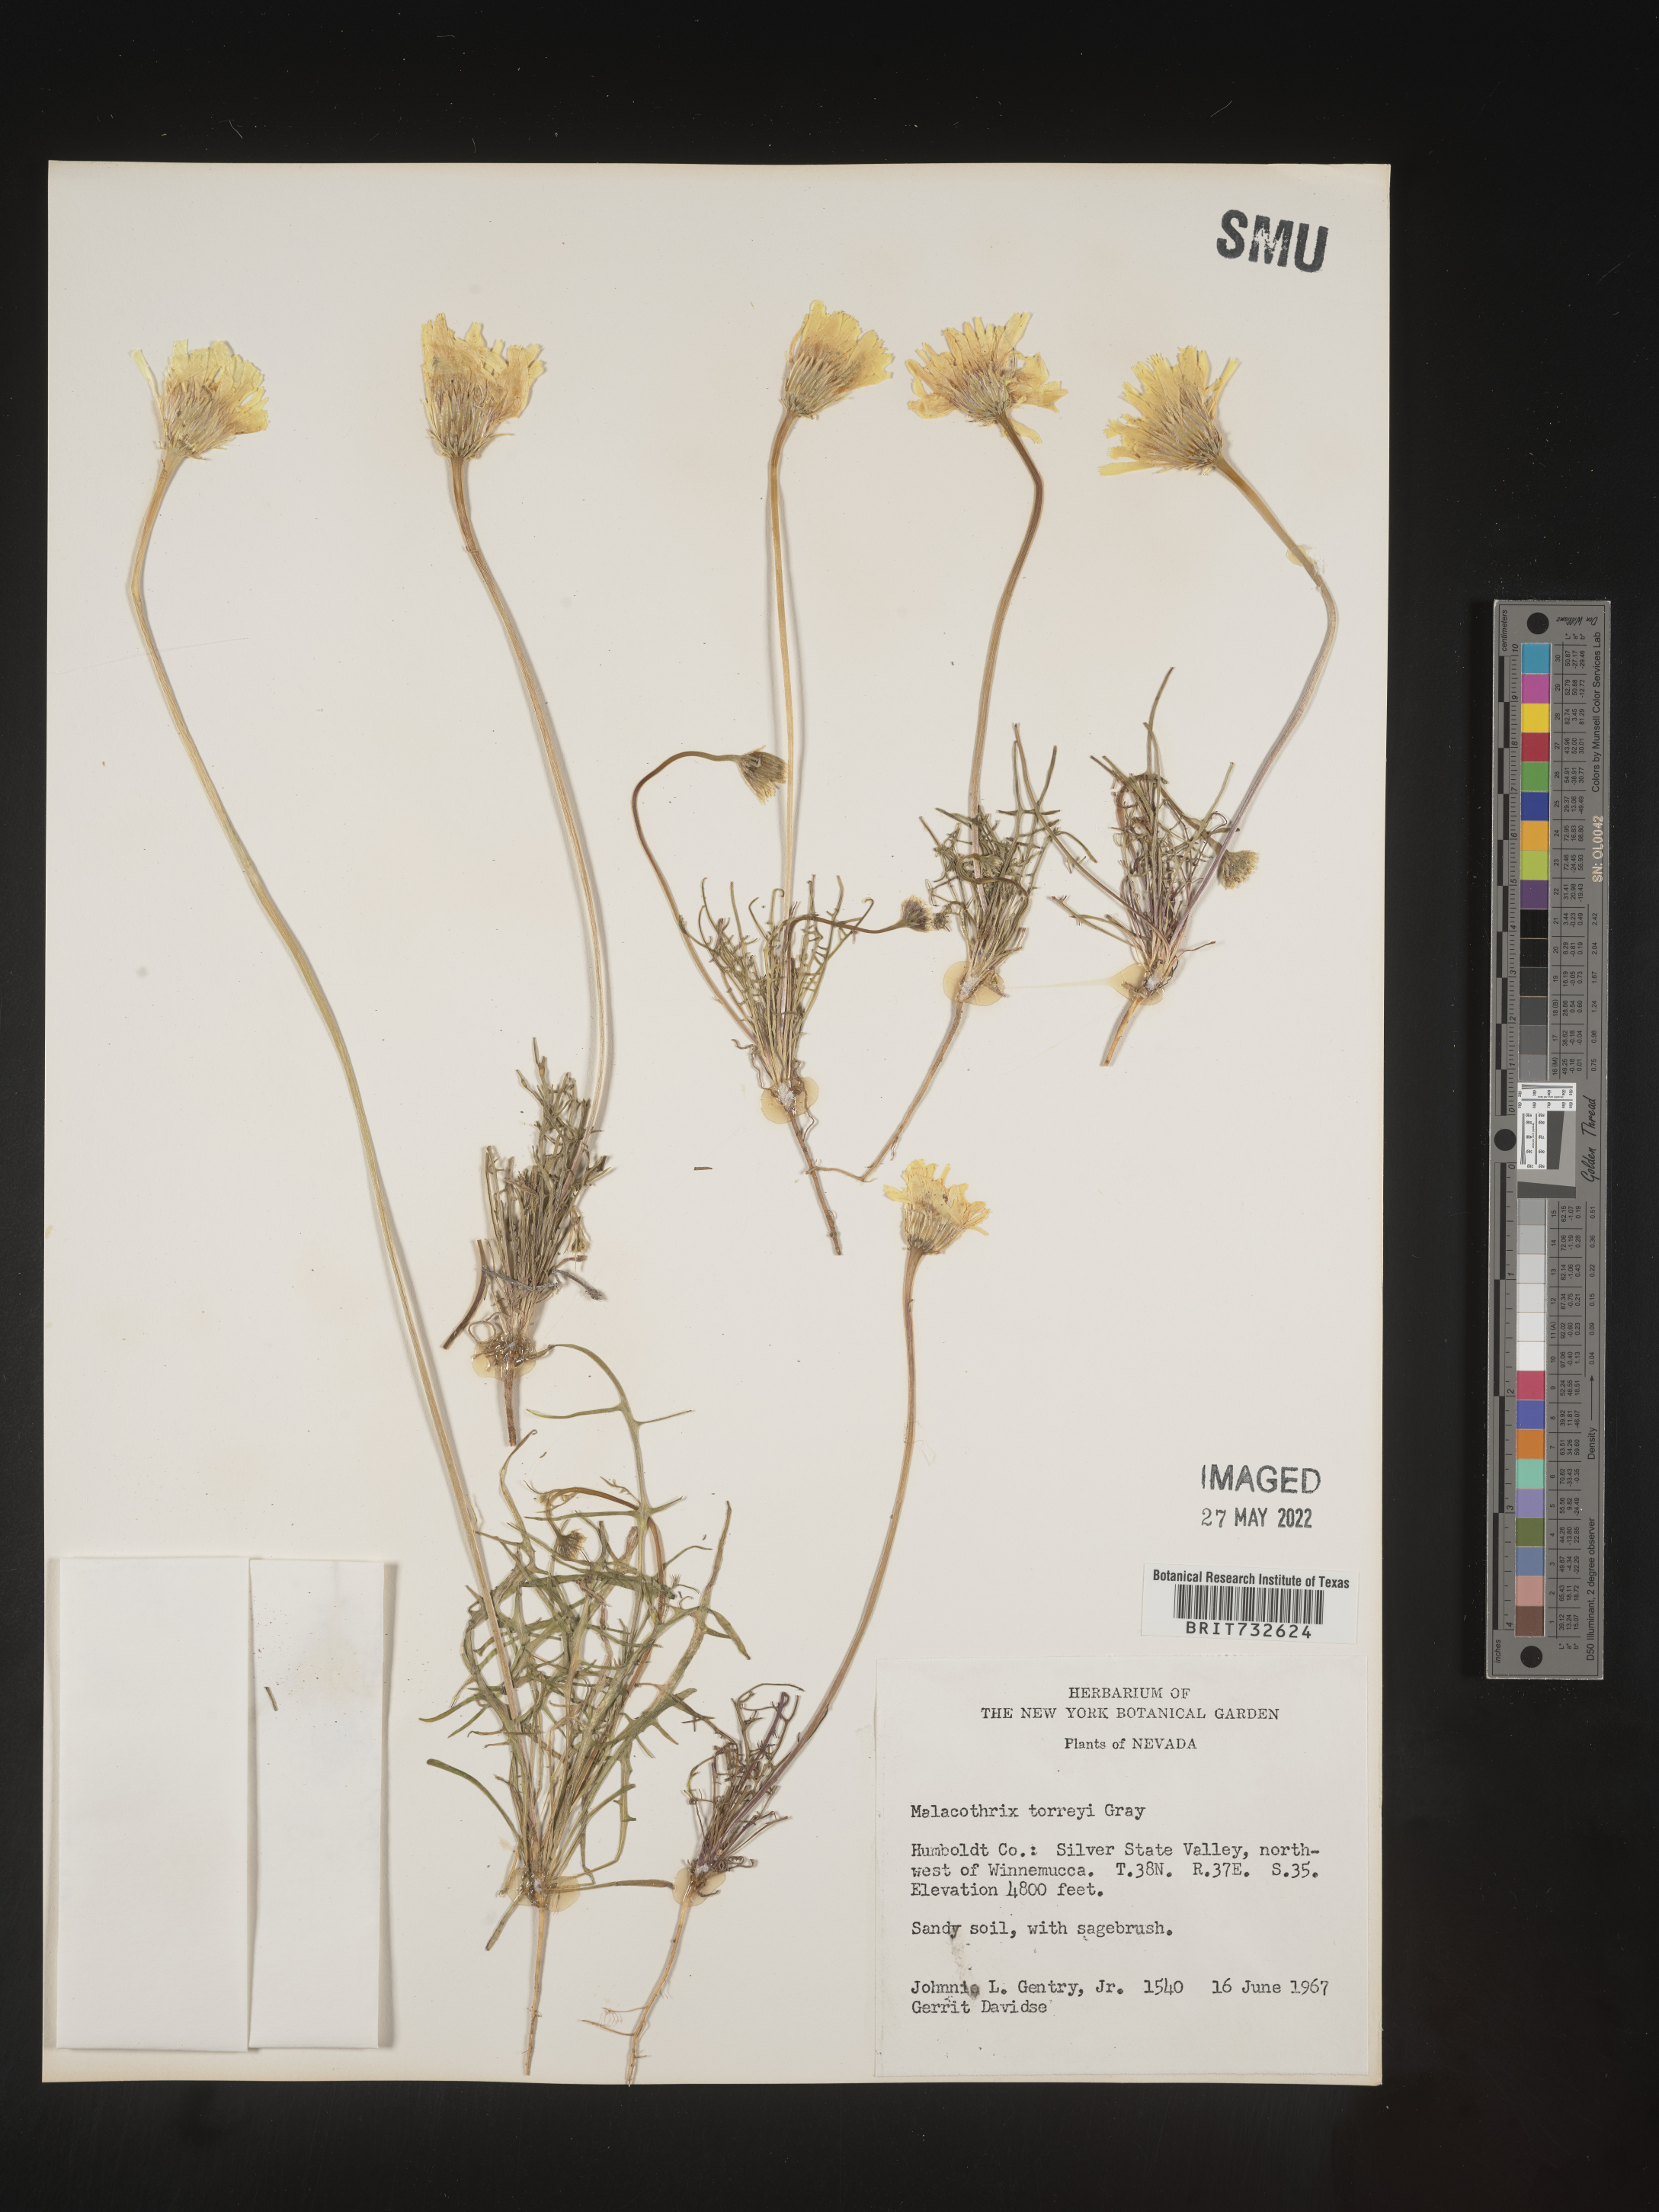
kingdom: Plantae
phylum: Tracheophyta
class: Magnoliopsida
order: Asterales
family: Asteraceae
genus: Malacothrix
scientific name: Malacothrix torreyi
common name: Torrey's desert-dandelion
